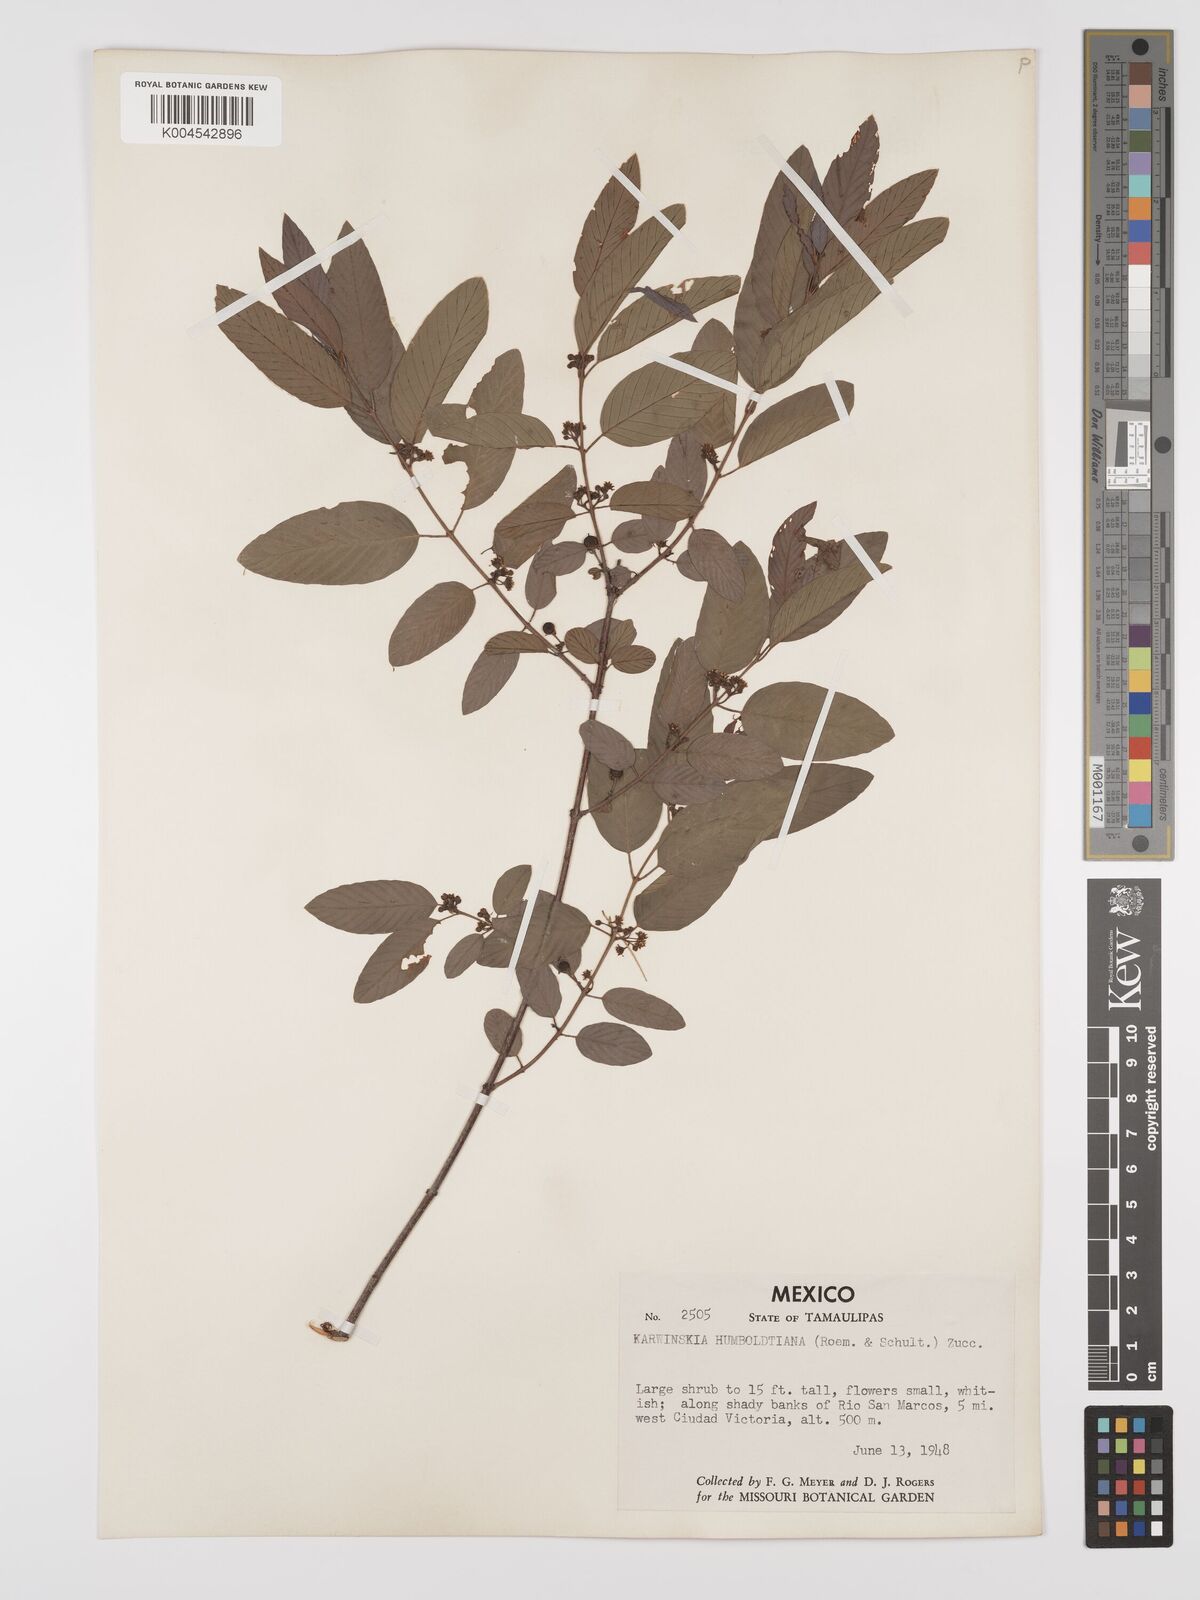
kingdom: Plantae
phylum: Tracheophyta
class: Magnoliopsida
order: Rosales
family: Rhamnaceae
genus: Karwinskia
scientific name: Karwinskia humboldtiana
